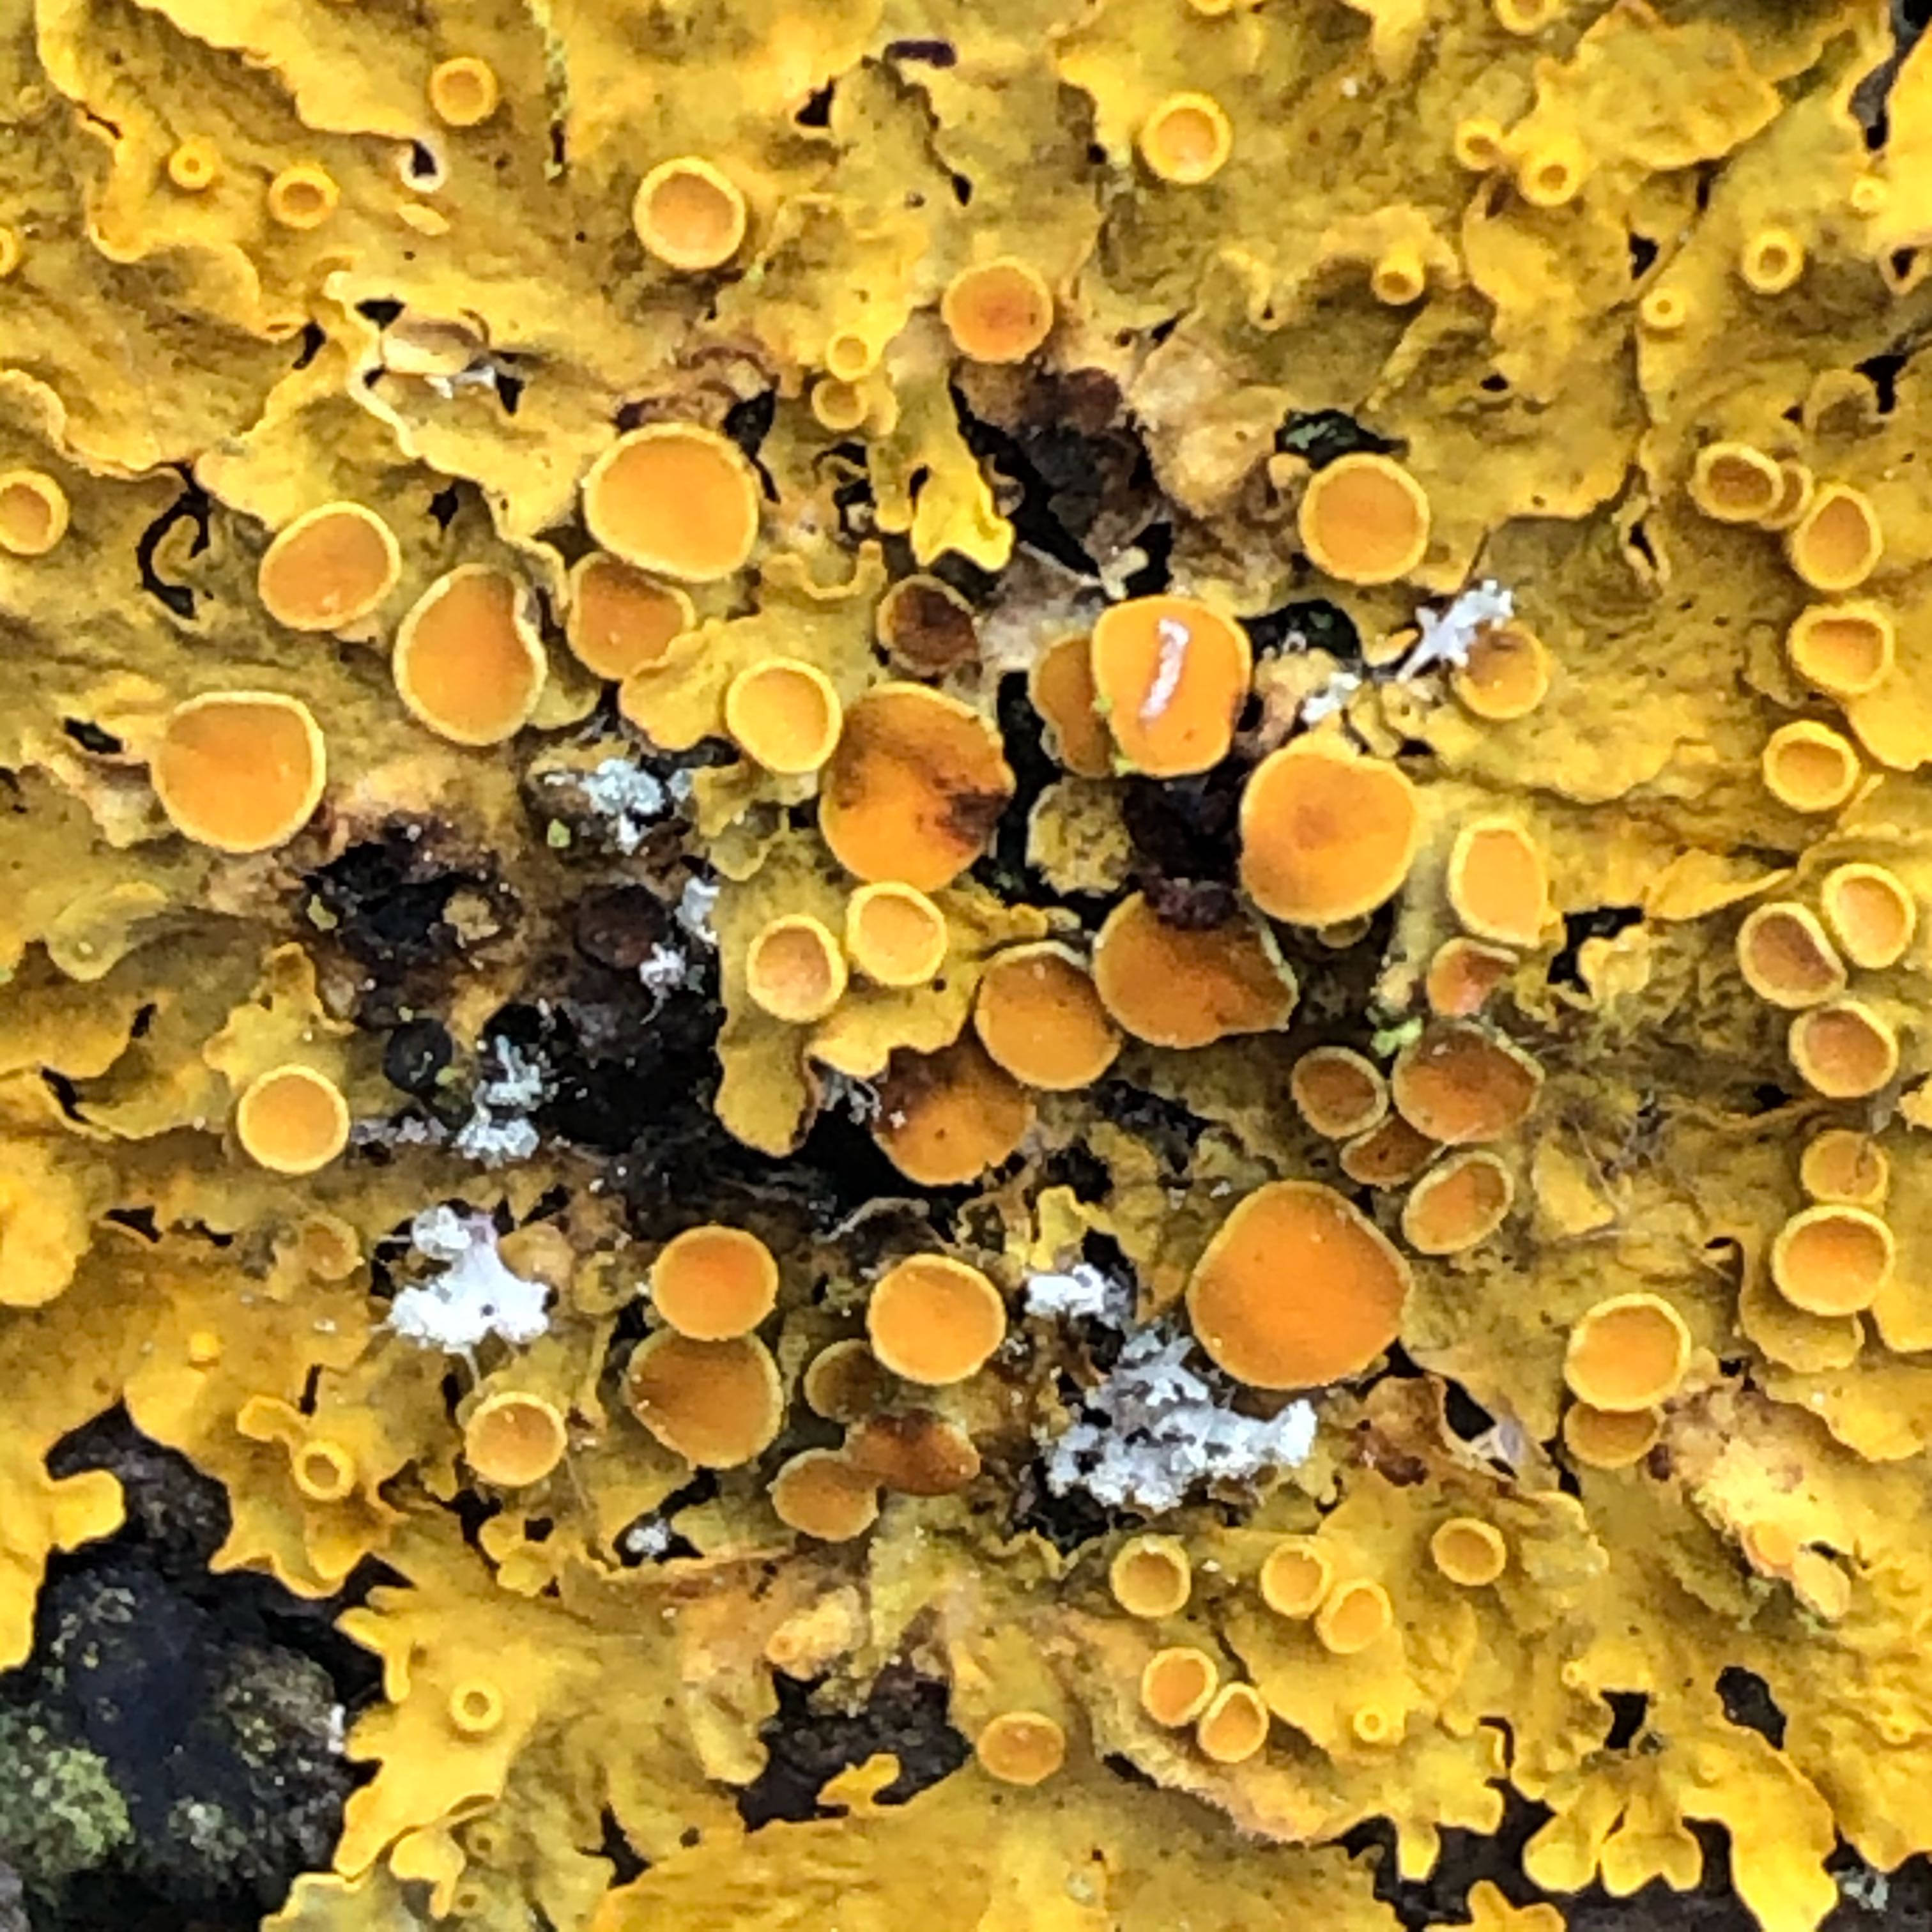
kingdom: Fungi
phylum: Ascomycota
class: Lecanoromycetes
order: Teloschistales
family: Teloschistaceae
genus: Xanthoria
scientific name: Xanthoria parietina
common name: almindelig væggelav
